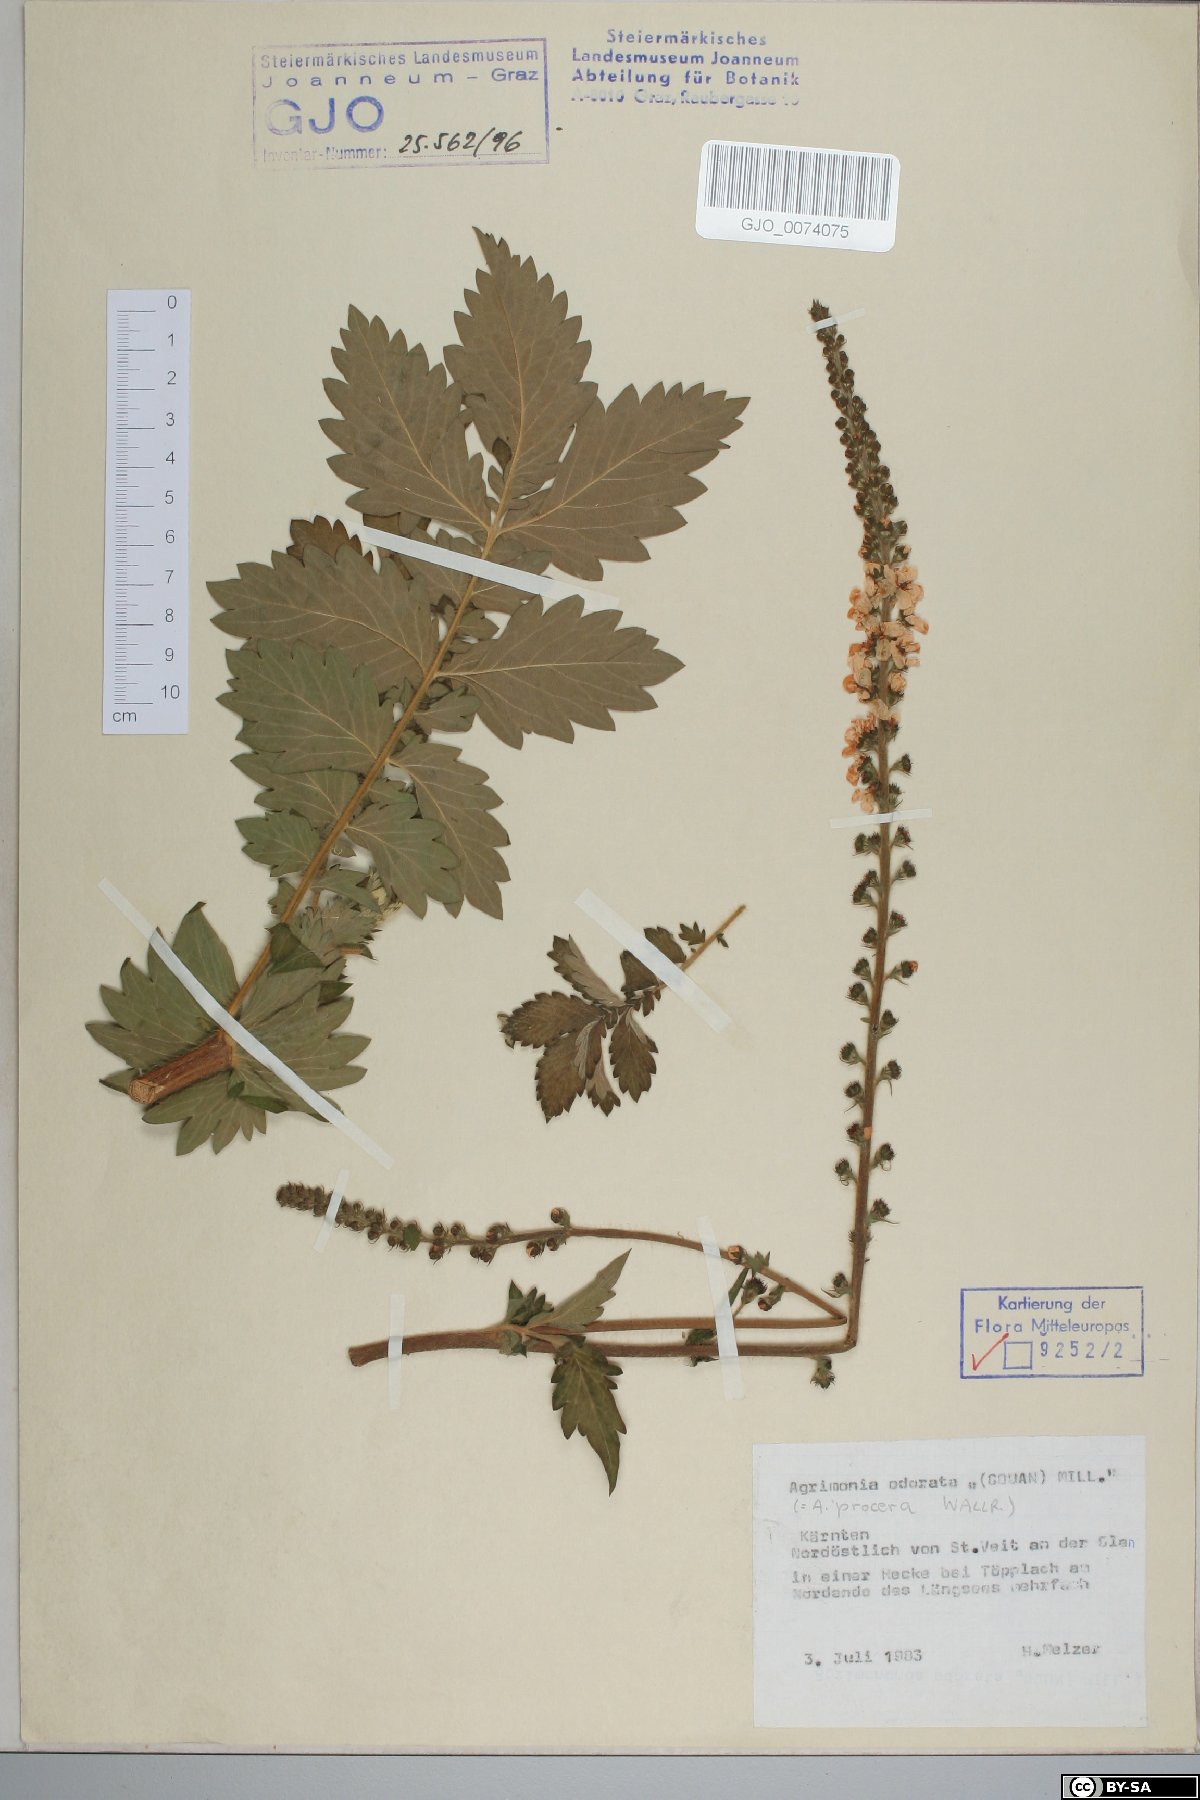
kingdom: Plantae
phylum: Tracheophyta
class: Magnoliopsida
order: Rosales
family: Rosaceae
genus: Agrimonia
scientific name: Agrimonia repens
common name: Creeping agrimony
